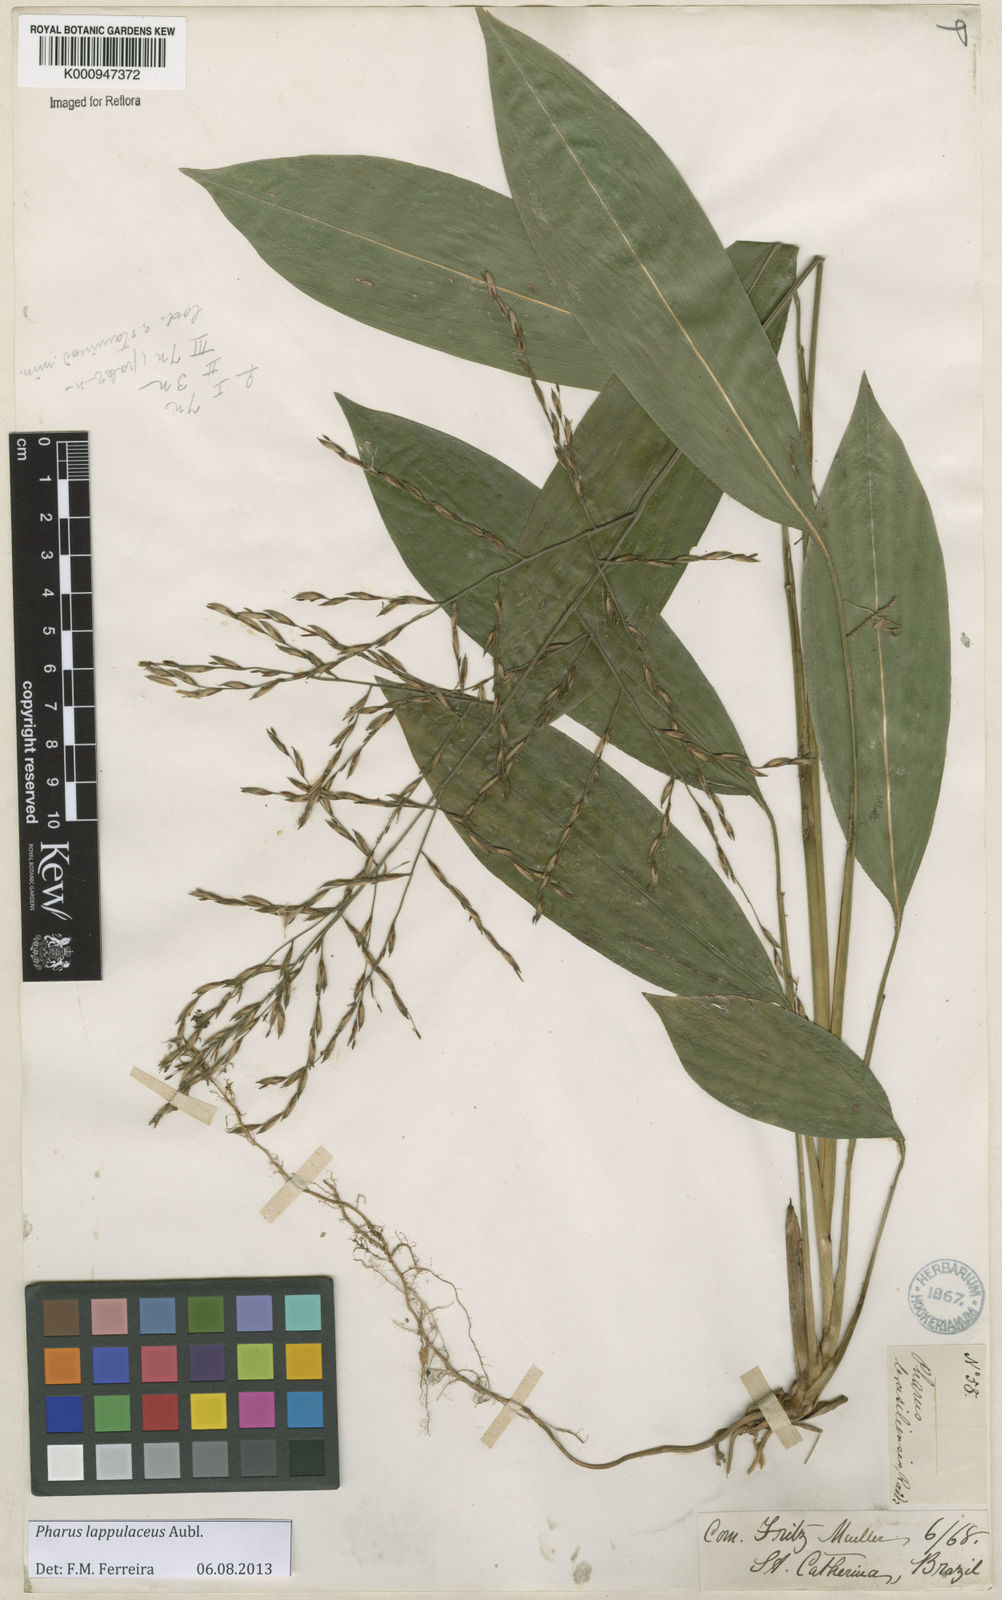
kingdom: Plantae
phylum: Tracheophyta
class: Liliopsida
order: Poales
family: Poaceae
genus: Pharus
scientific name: Pharus lappulaceus
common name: Creeping leafstalk grass
